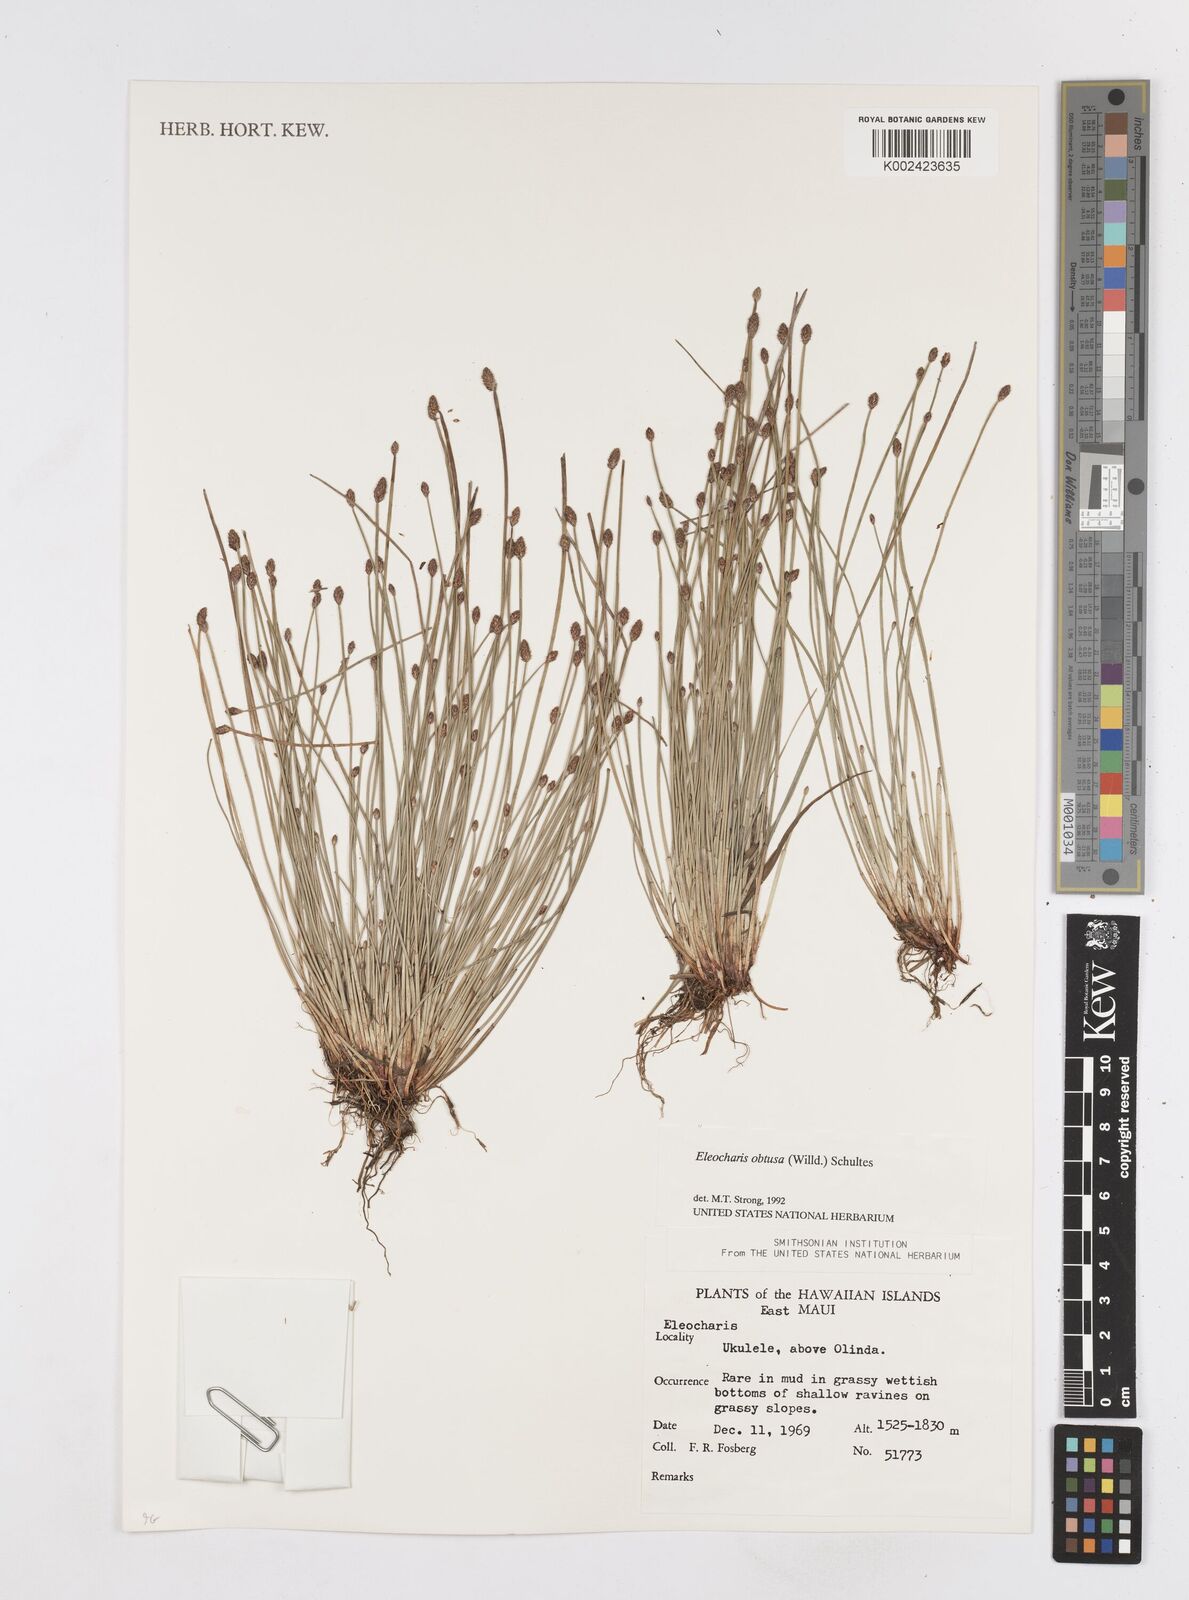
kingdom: Plantae
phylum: Tracheophyta
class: Liliopsida
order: Poales
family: Cyperaceae
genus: Eleocharis
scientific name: Eleocharis obtusa
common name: Blunt spikerush
